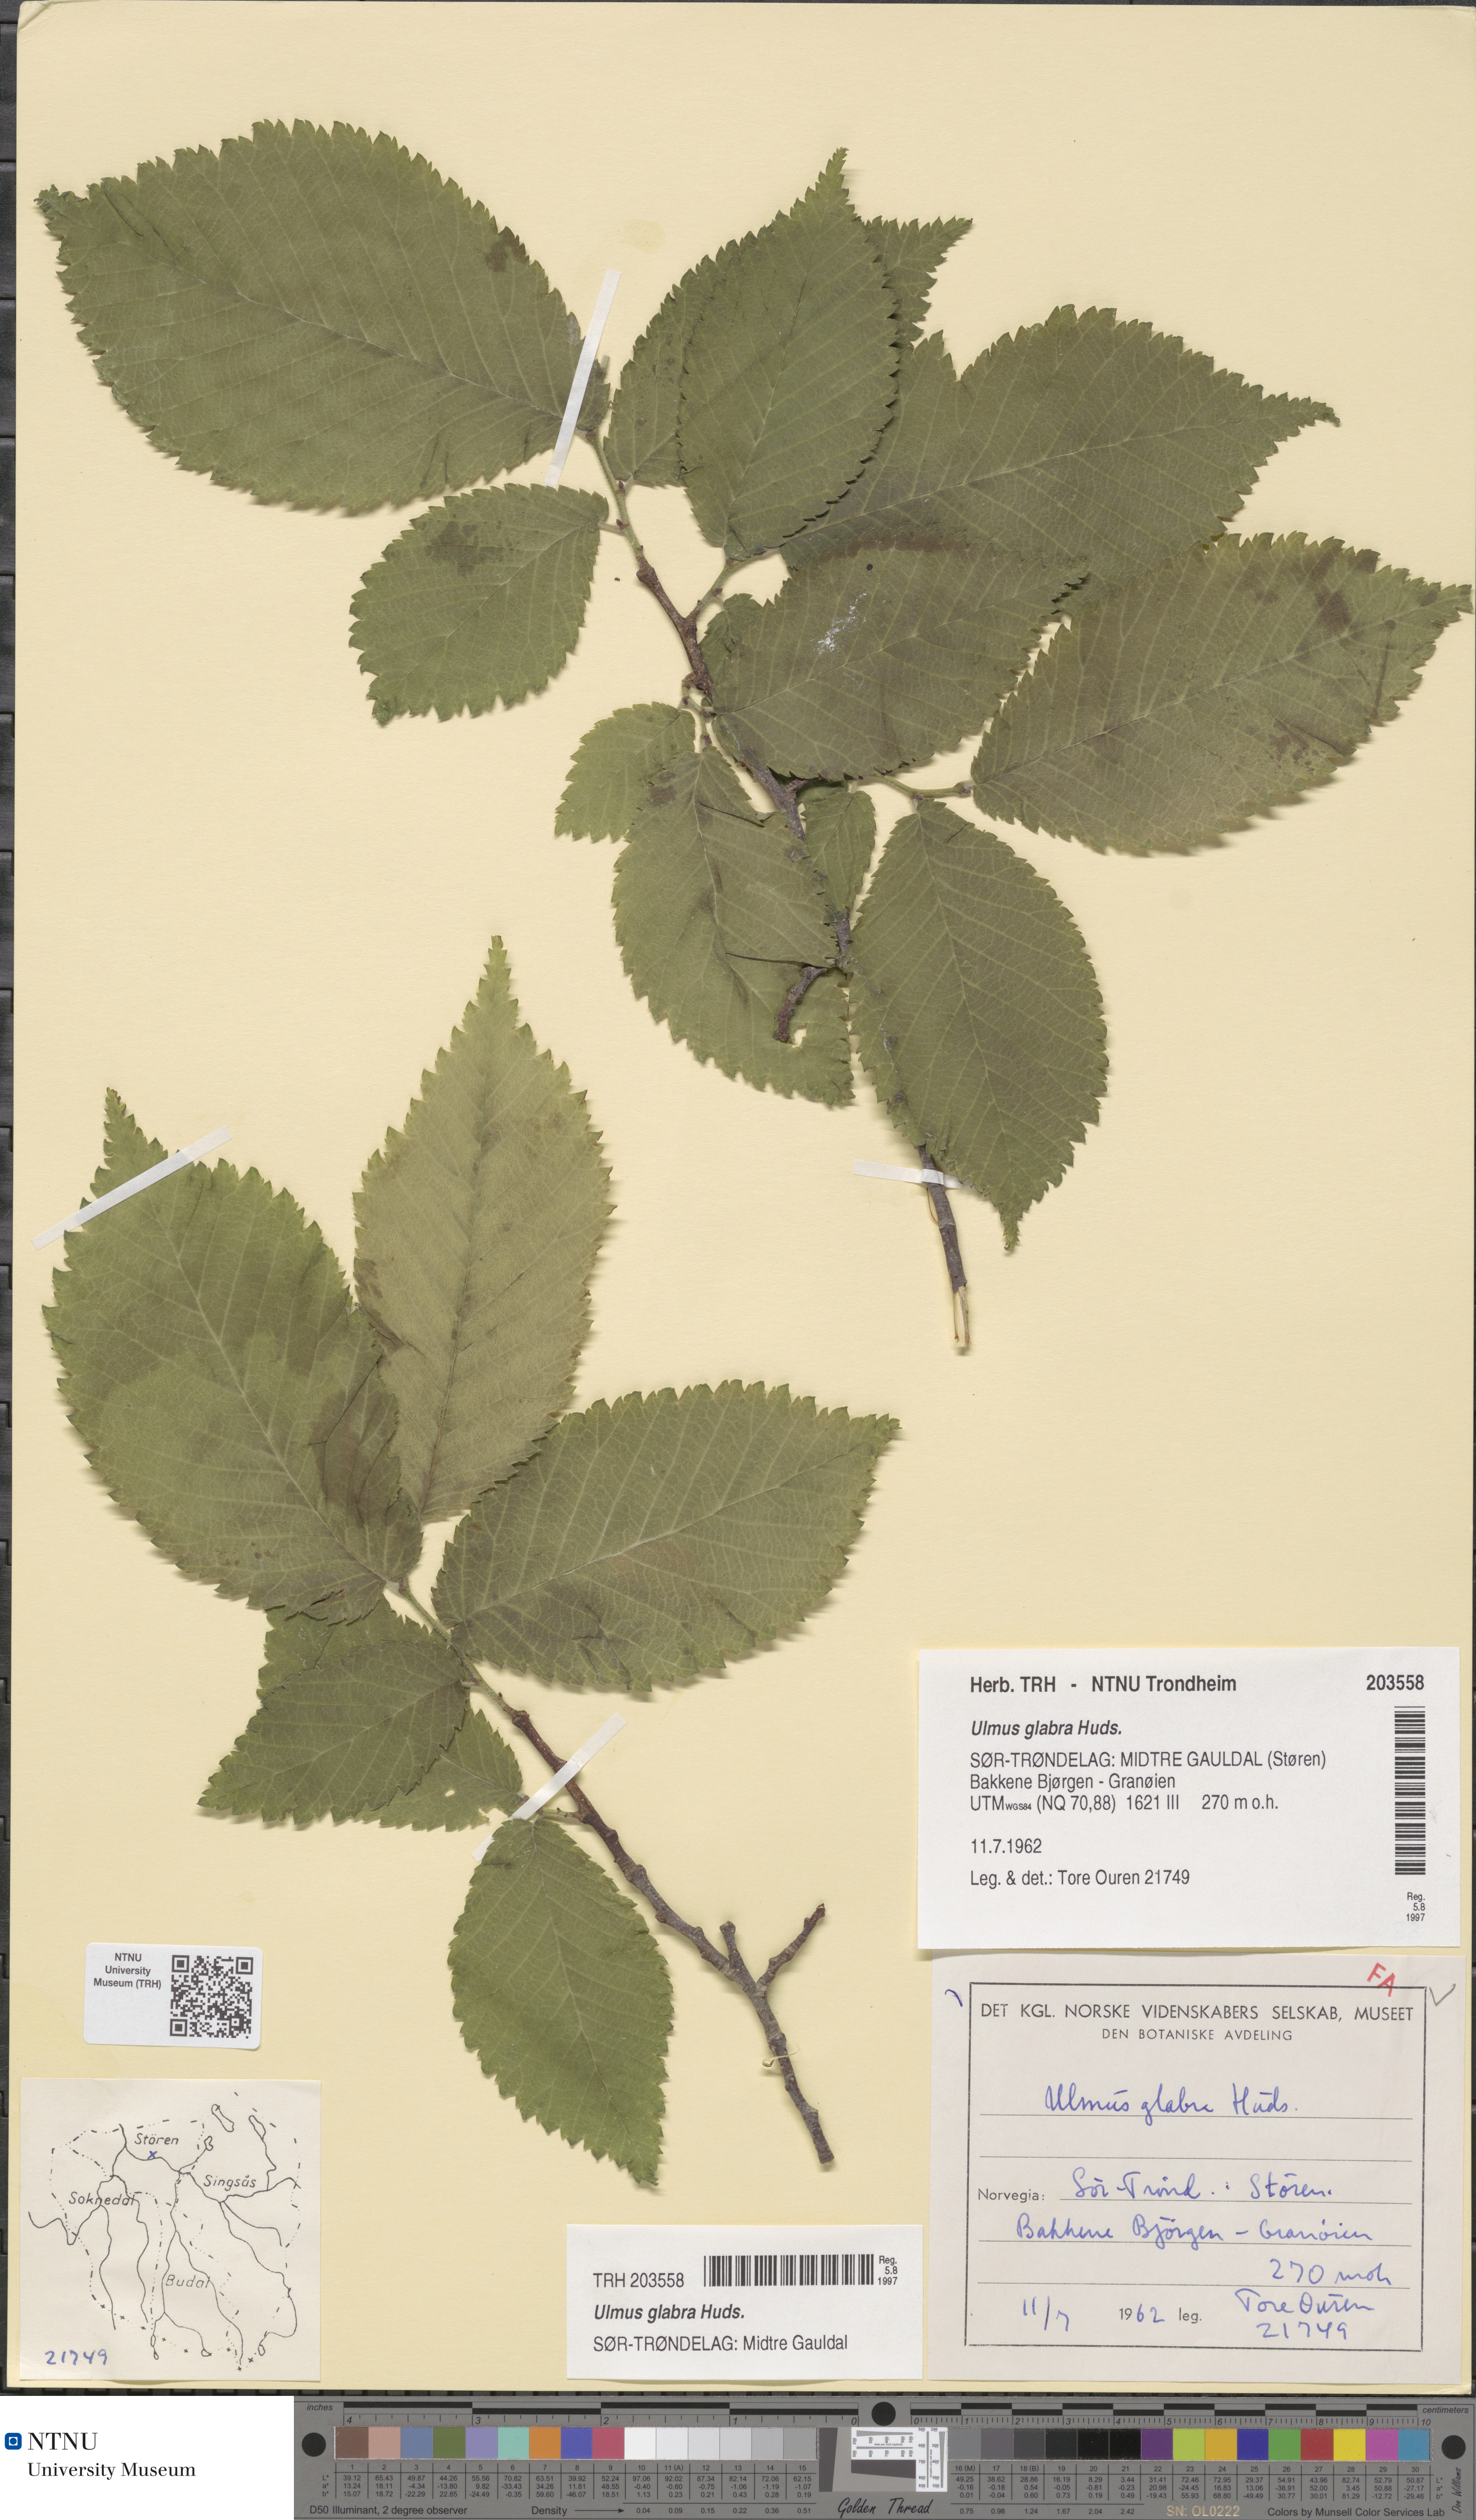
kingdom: Plantae
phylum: Tracheophyta
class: Magnoliopsida
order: Rosales
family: Ulmaceae
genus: Ulmus
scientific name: Ulmus glabra
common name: Wych elm
